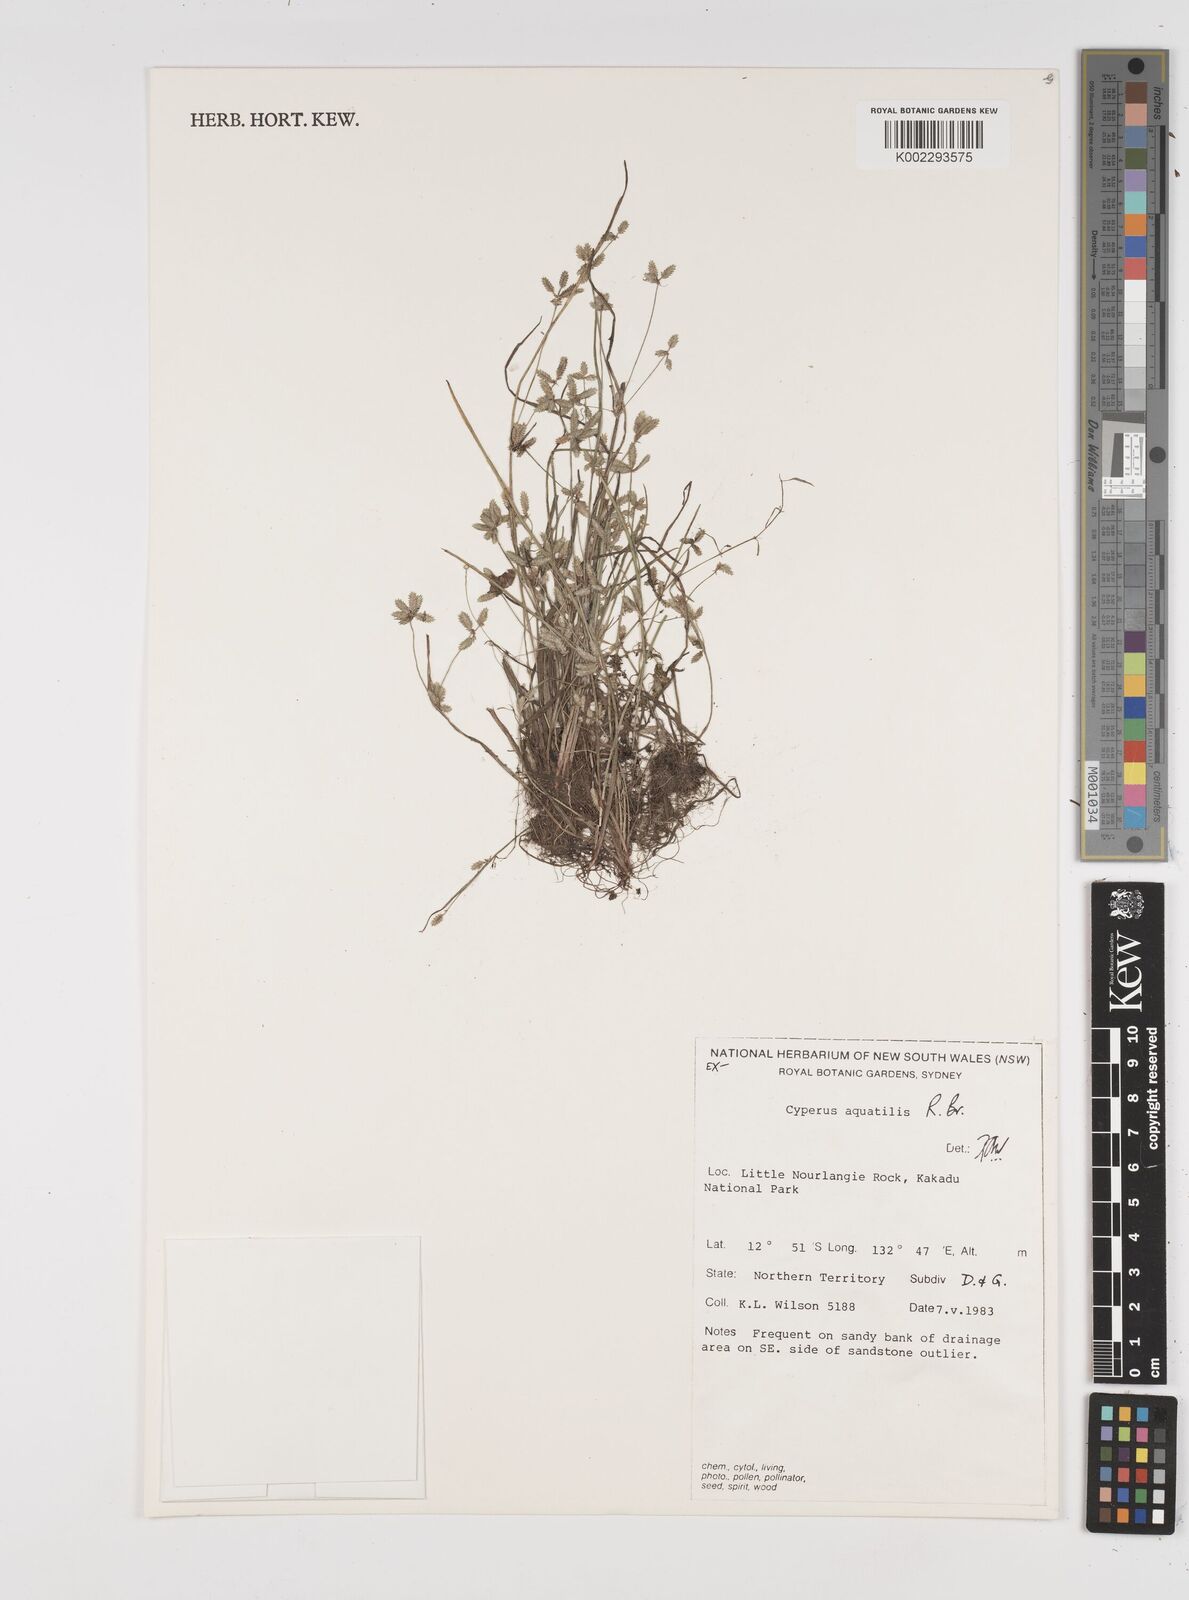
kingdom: Plantae
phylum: Tracheophyta
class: Liliopsida
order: Poales
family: Cyperaceae
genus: Cyperus
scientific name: Cyperus aquatilis
